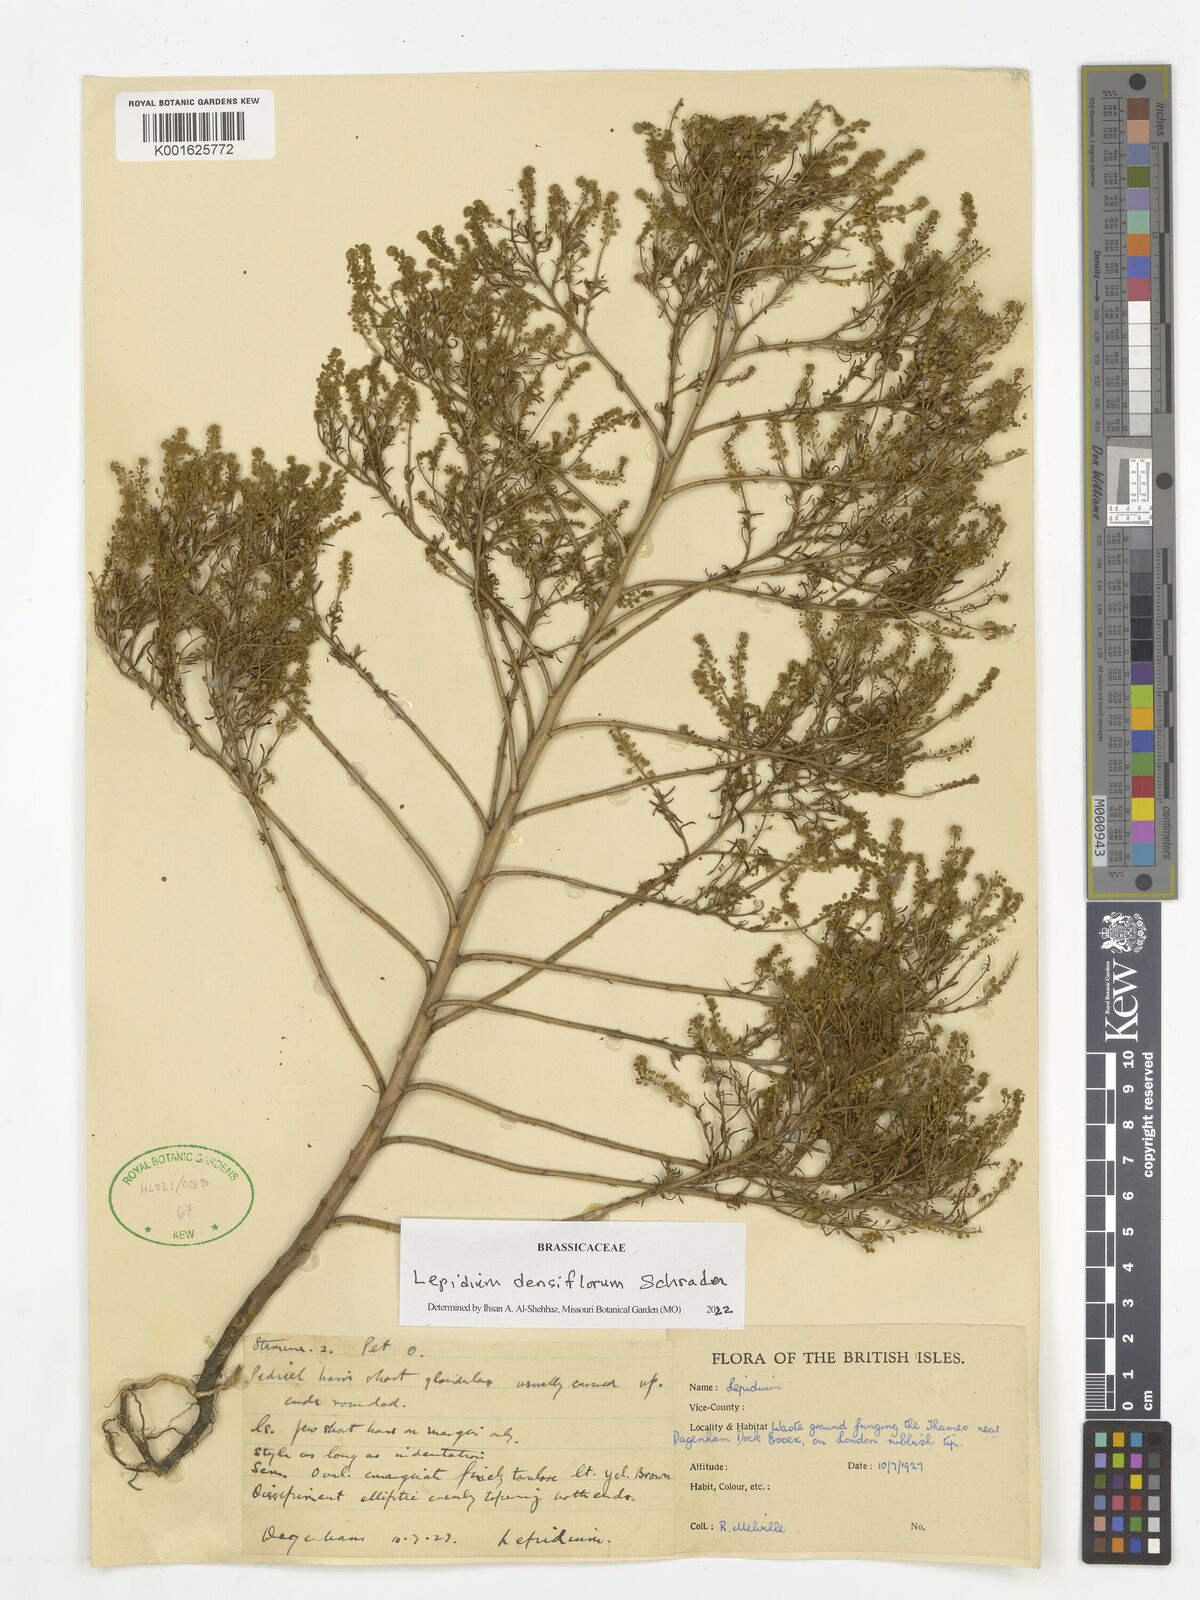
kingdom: Plantae
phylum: Tracheophyta
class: Magnoliopsida
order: Brassicales
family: Brassicaceae
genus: Lepidium
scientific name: Lepidium densiflorum
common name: Miner's pepperwort
